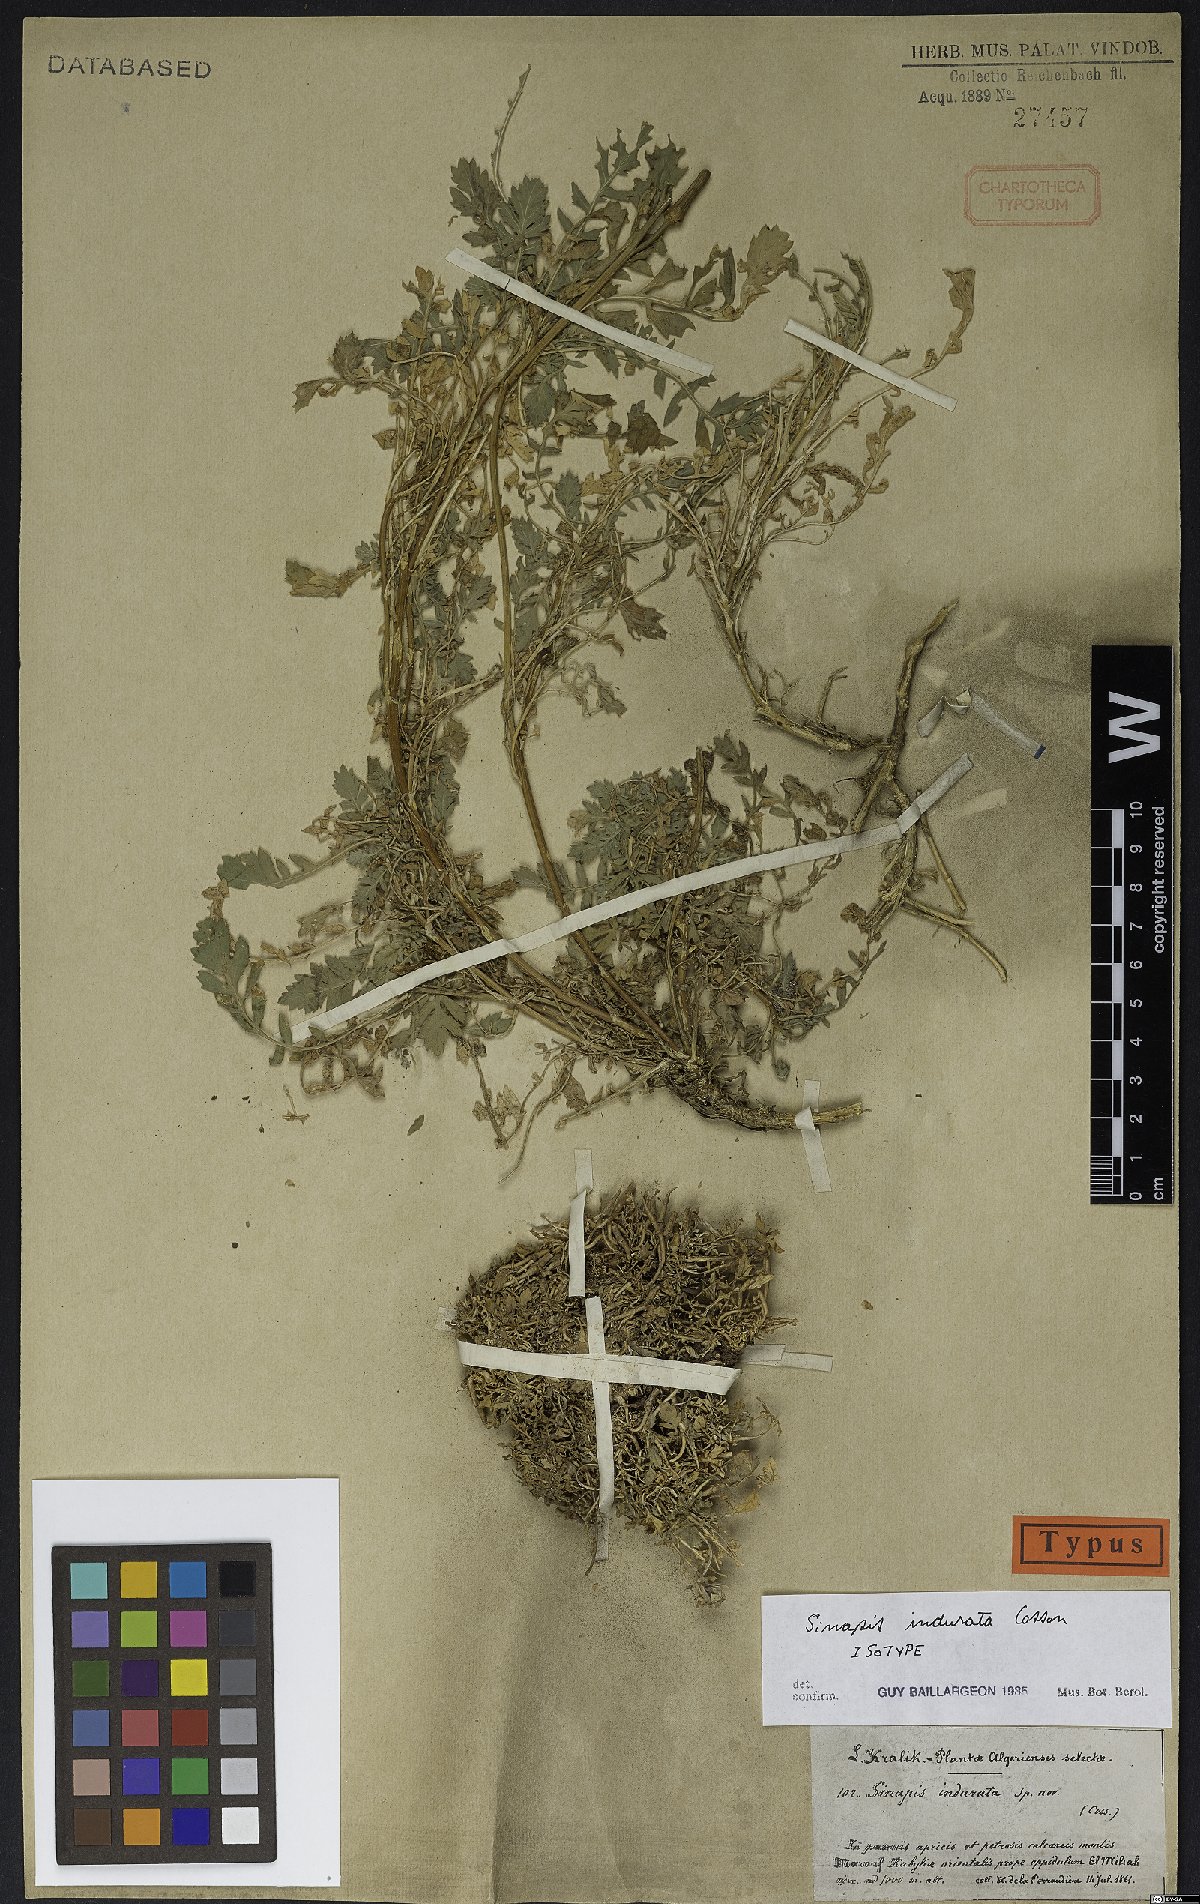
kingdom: Plantae
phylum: Tracheophyta
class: Magnoliopsida
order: Brassicales
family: Brassicaceae
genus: Sinapis
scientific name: Sinapis pubescens
